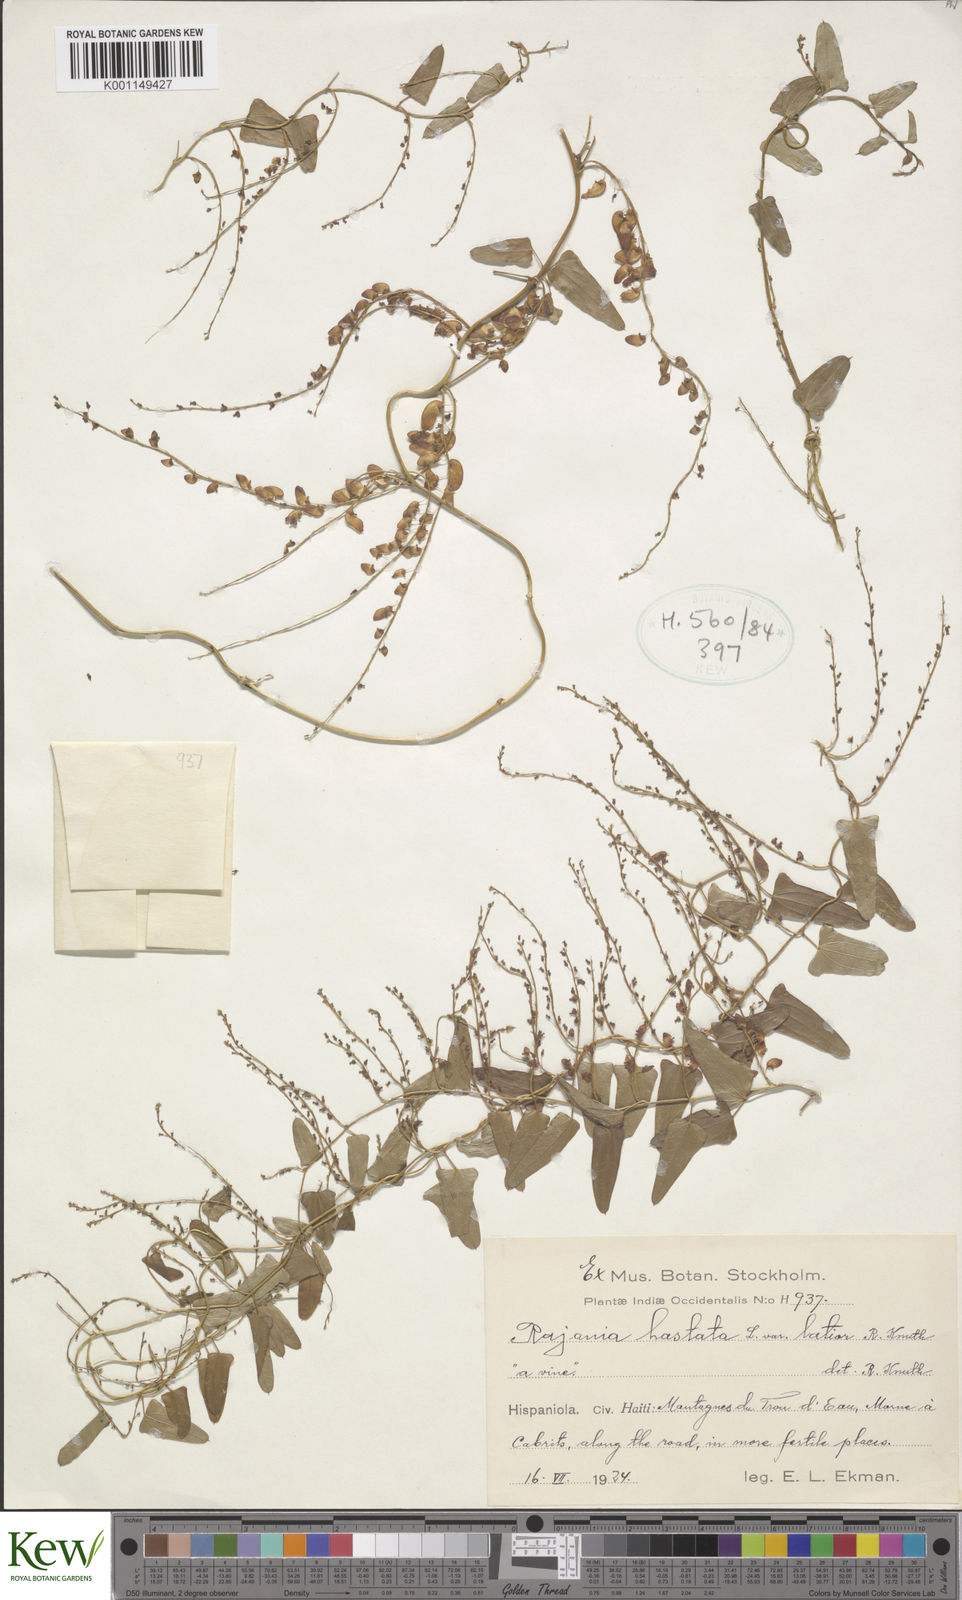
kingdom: Plantae
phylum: Tracheophyta
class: Liliopsida
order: Dioscoreales
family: Dioscoreaceae
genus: Dioscorea
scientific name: Dioscorea hastata
